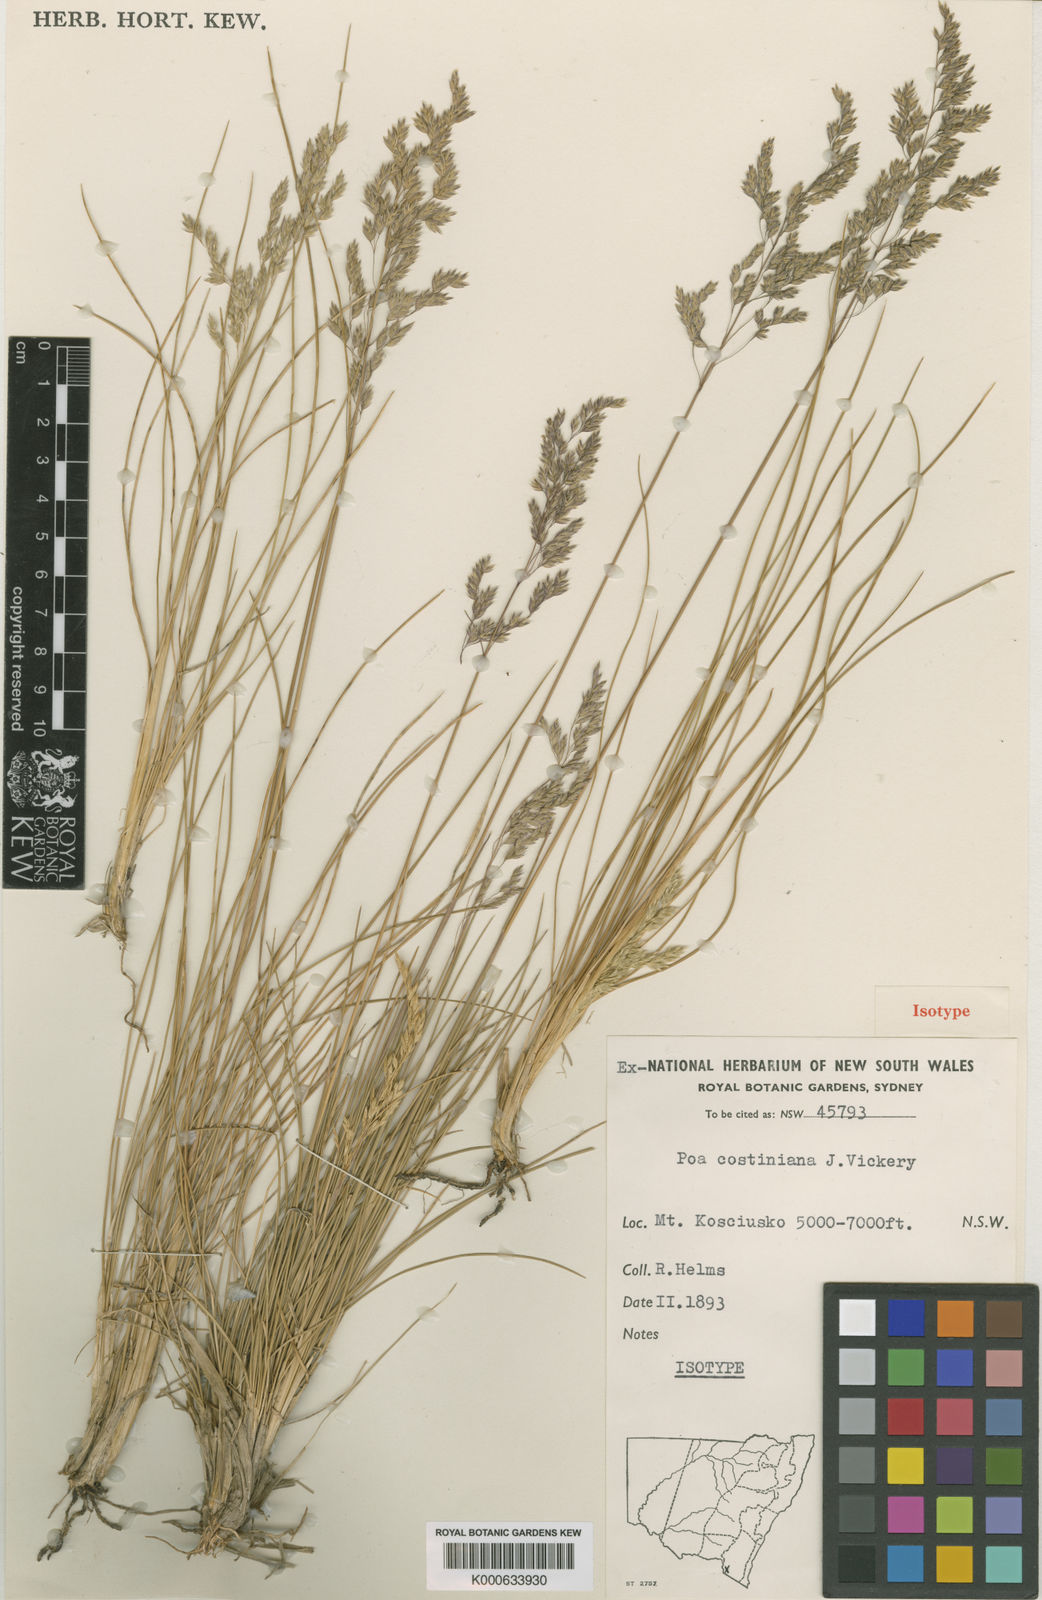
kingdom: Plantae
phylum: Tracheophyta
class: Liliopsida
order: Poales
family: Poaceae
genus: Poa
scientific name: Poa costiniana
